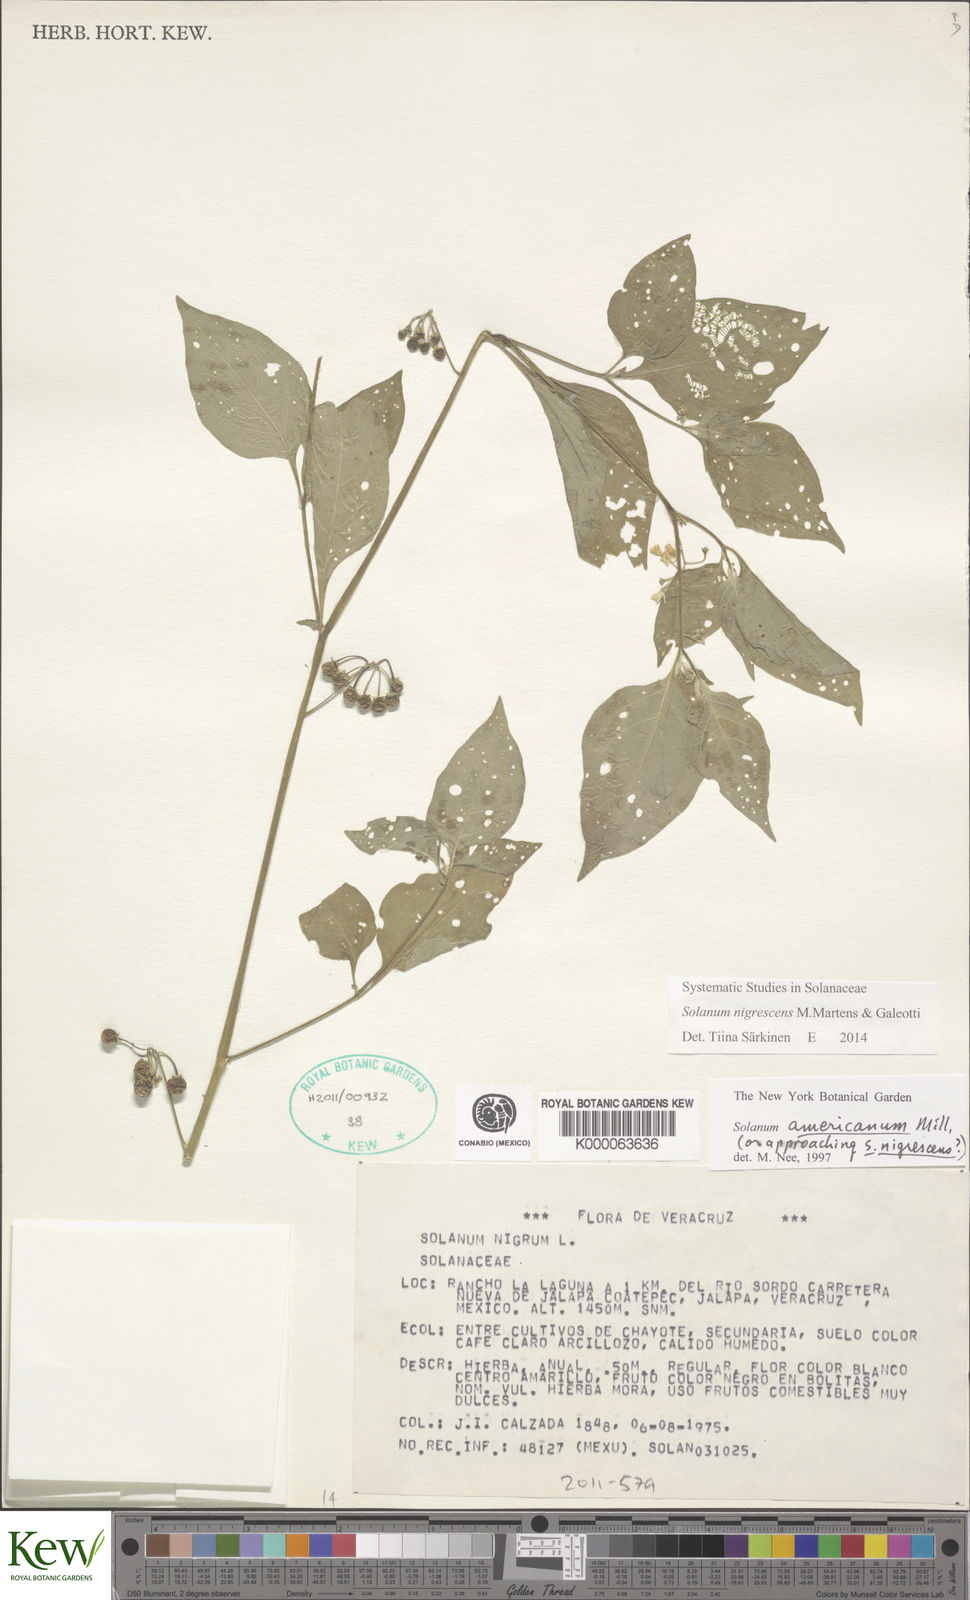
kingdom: Plantae
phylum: Tracheophyta
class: Magnoliopsida
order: Solanales
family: Solanaceae
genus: Solanum
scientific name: Solanum americanum
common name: American black nightshade
